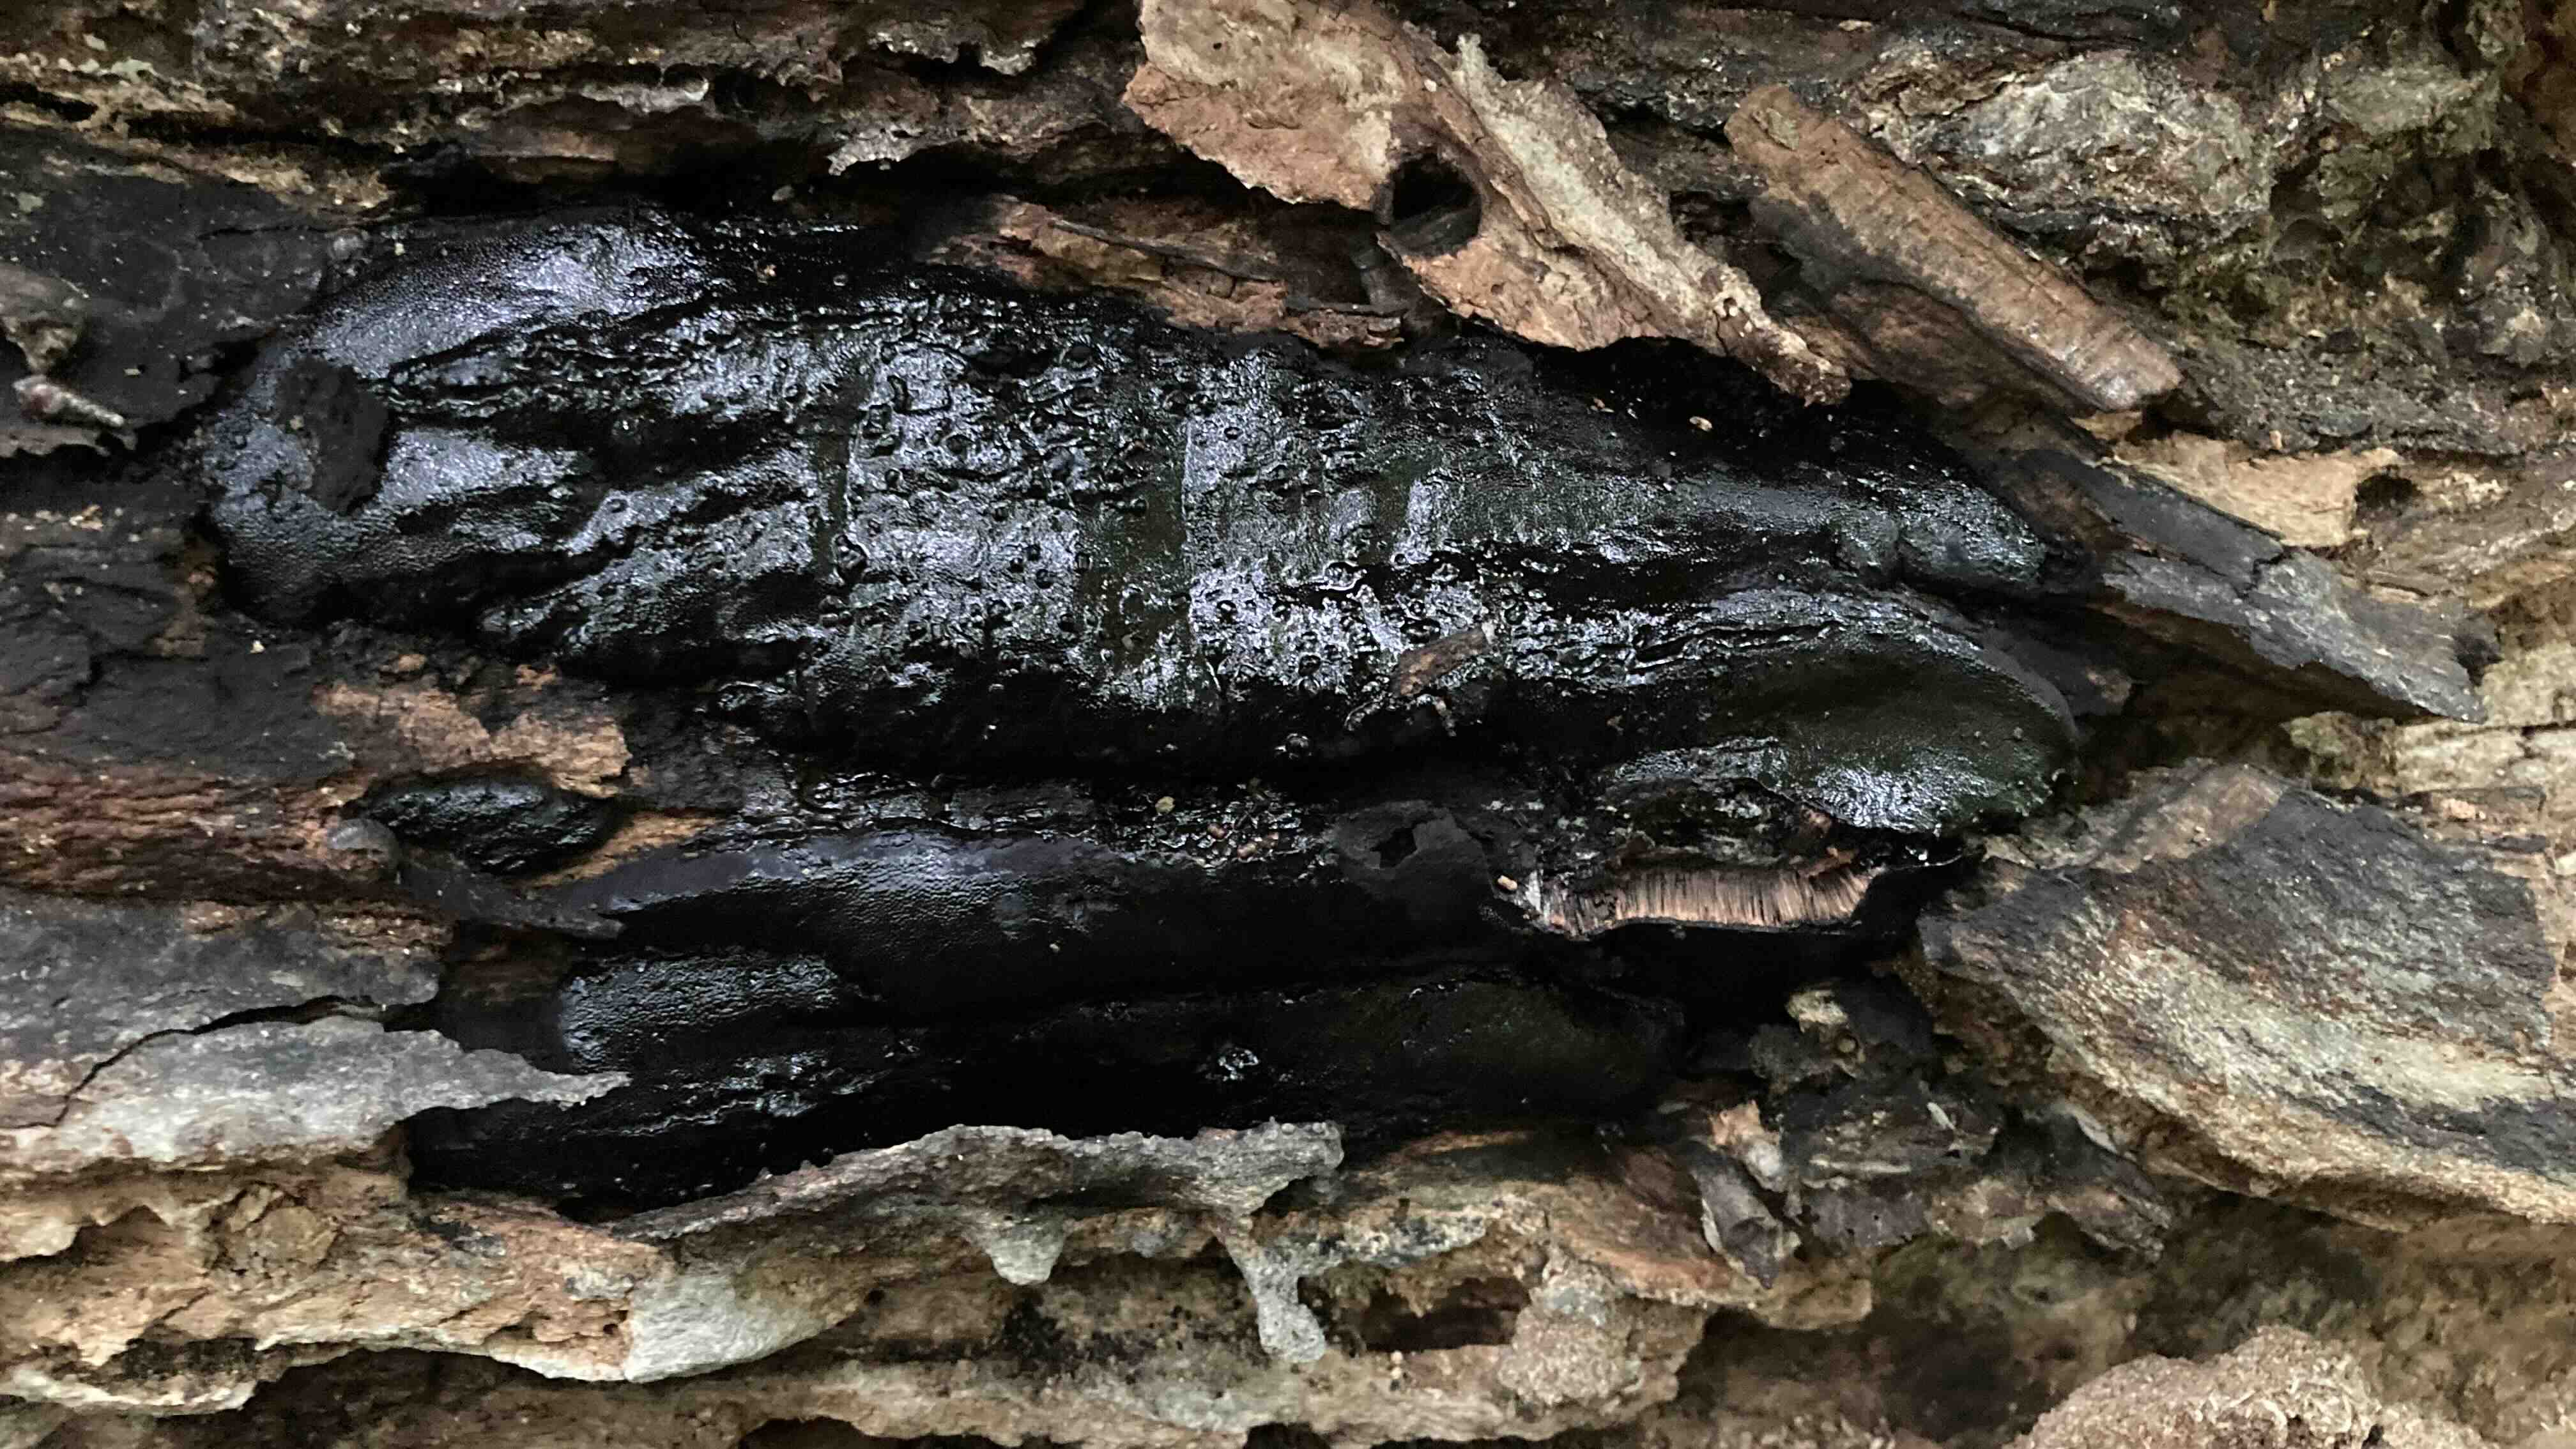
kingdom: Fungi
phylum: Ascomycota
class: Sordariomycetes
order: Boliniales
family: Boliniaceae
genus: Camarops
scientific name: Camarops polysperma
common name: elle-kulsnegl
